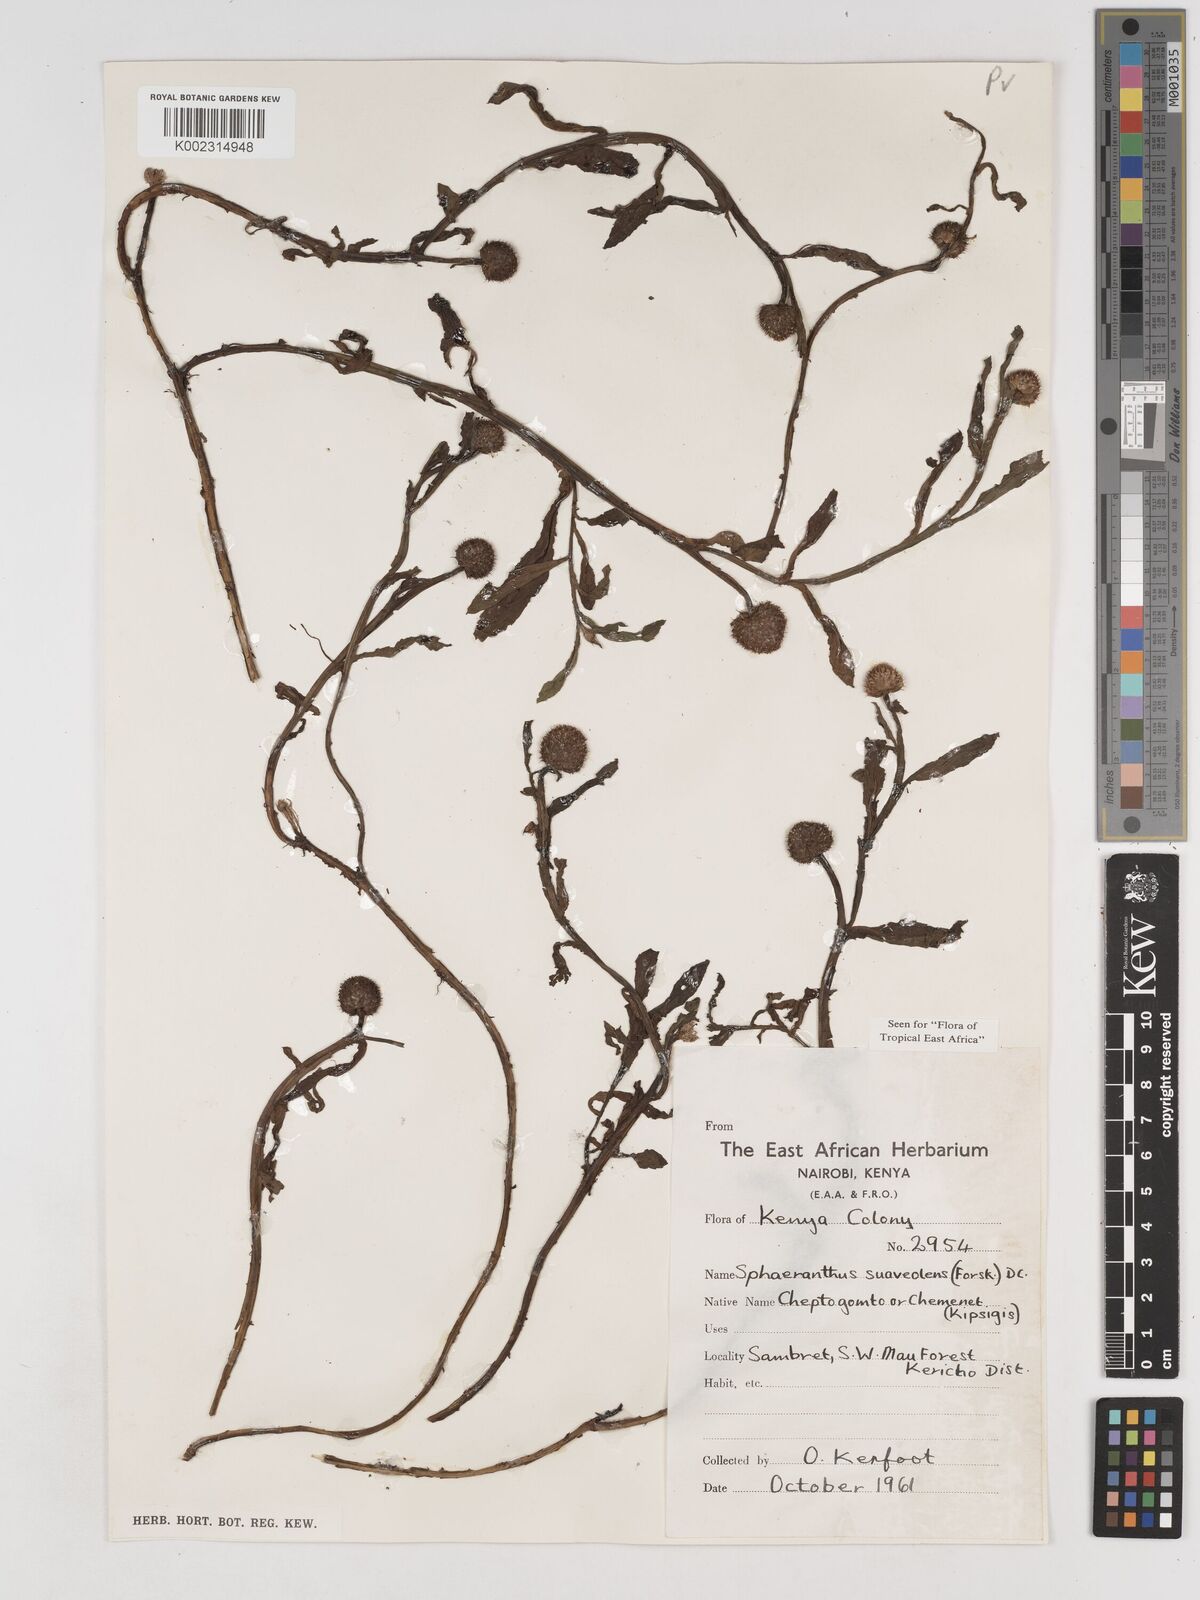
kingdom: Plantae
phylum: Tracheophyta
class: Magnoliopsida
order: Asterales
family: Asteraceae
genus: Sphaeranthus
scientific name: Sphaeranthus suaveolens
